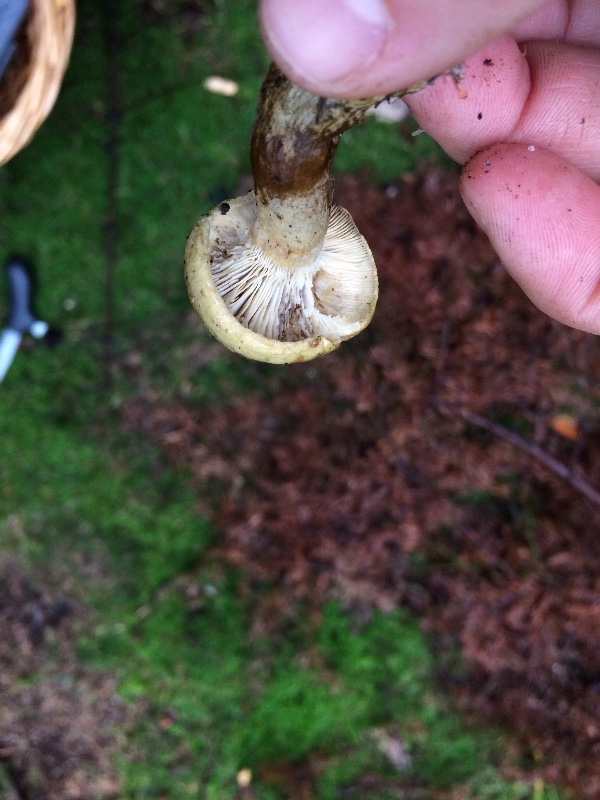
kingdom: Fungi
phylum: Basidiomycota
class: Agaricomycetes
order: Russulales
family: Russulaceae
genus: Lactarius
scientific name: Lactarius necator
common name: manddraber-mælkehat
